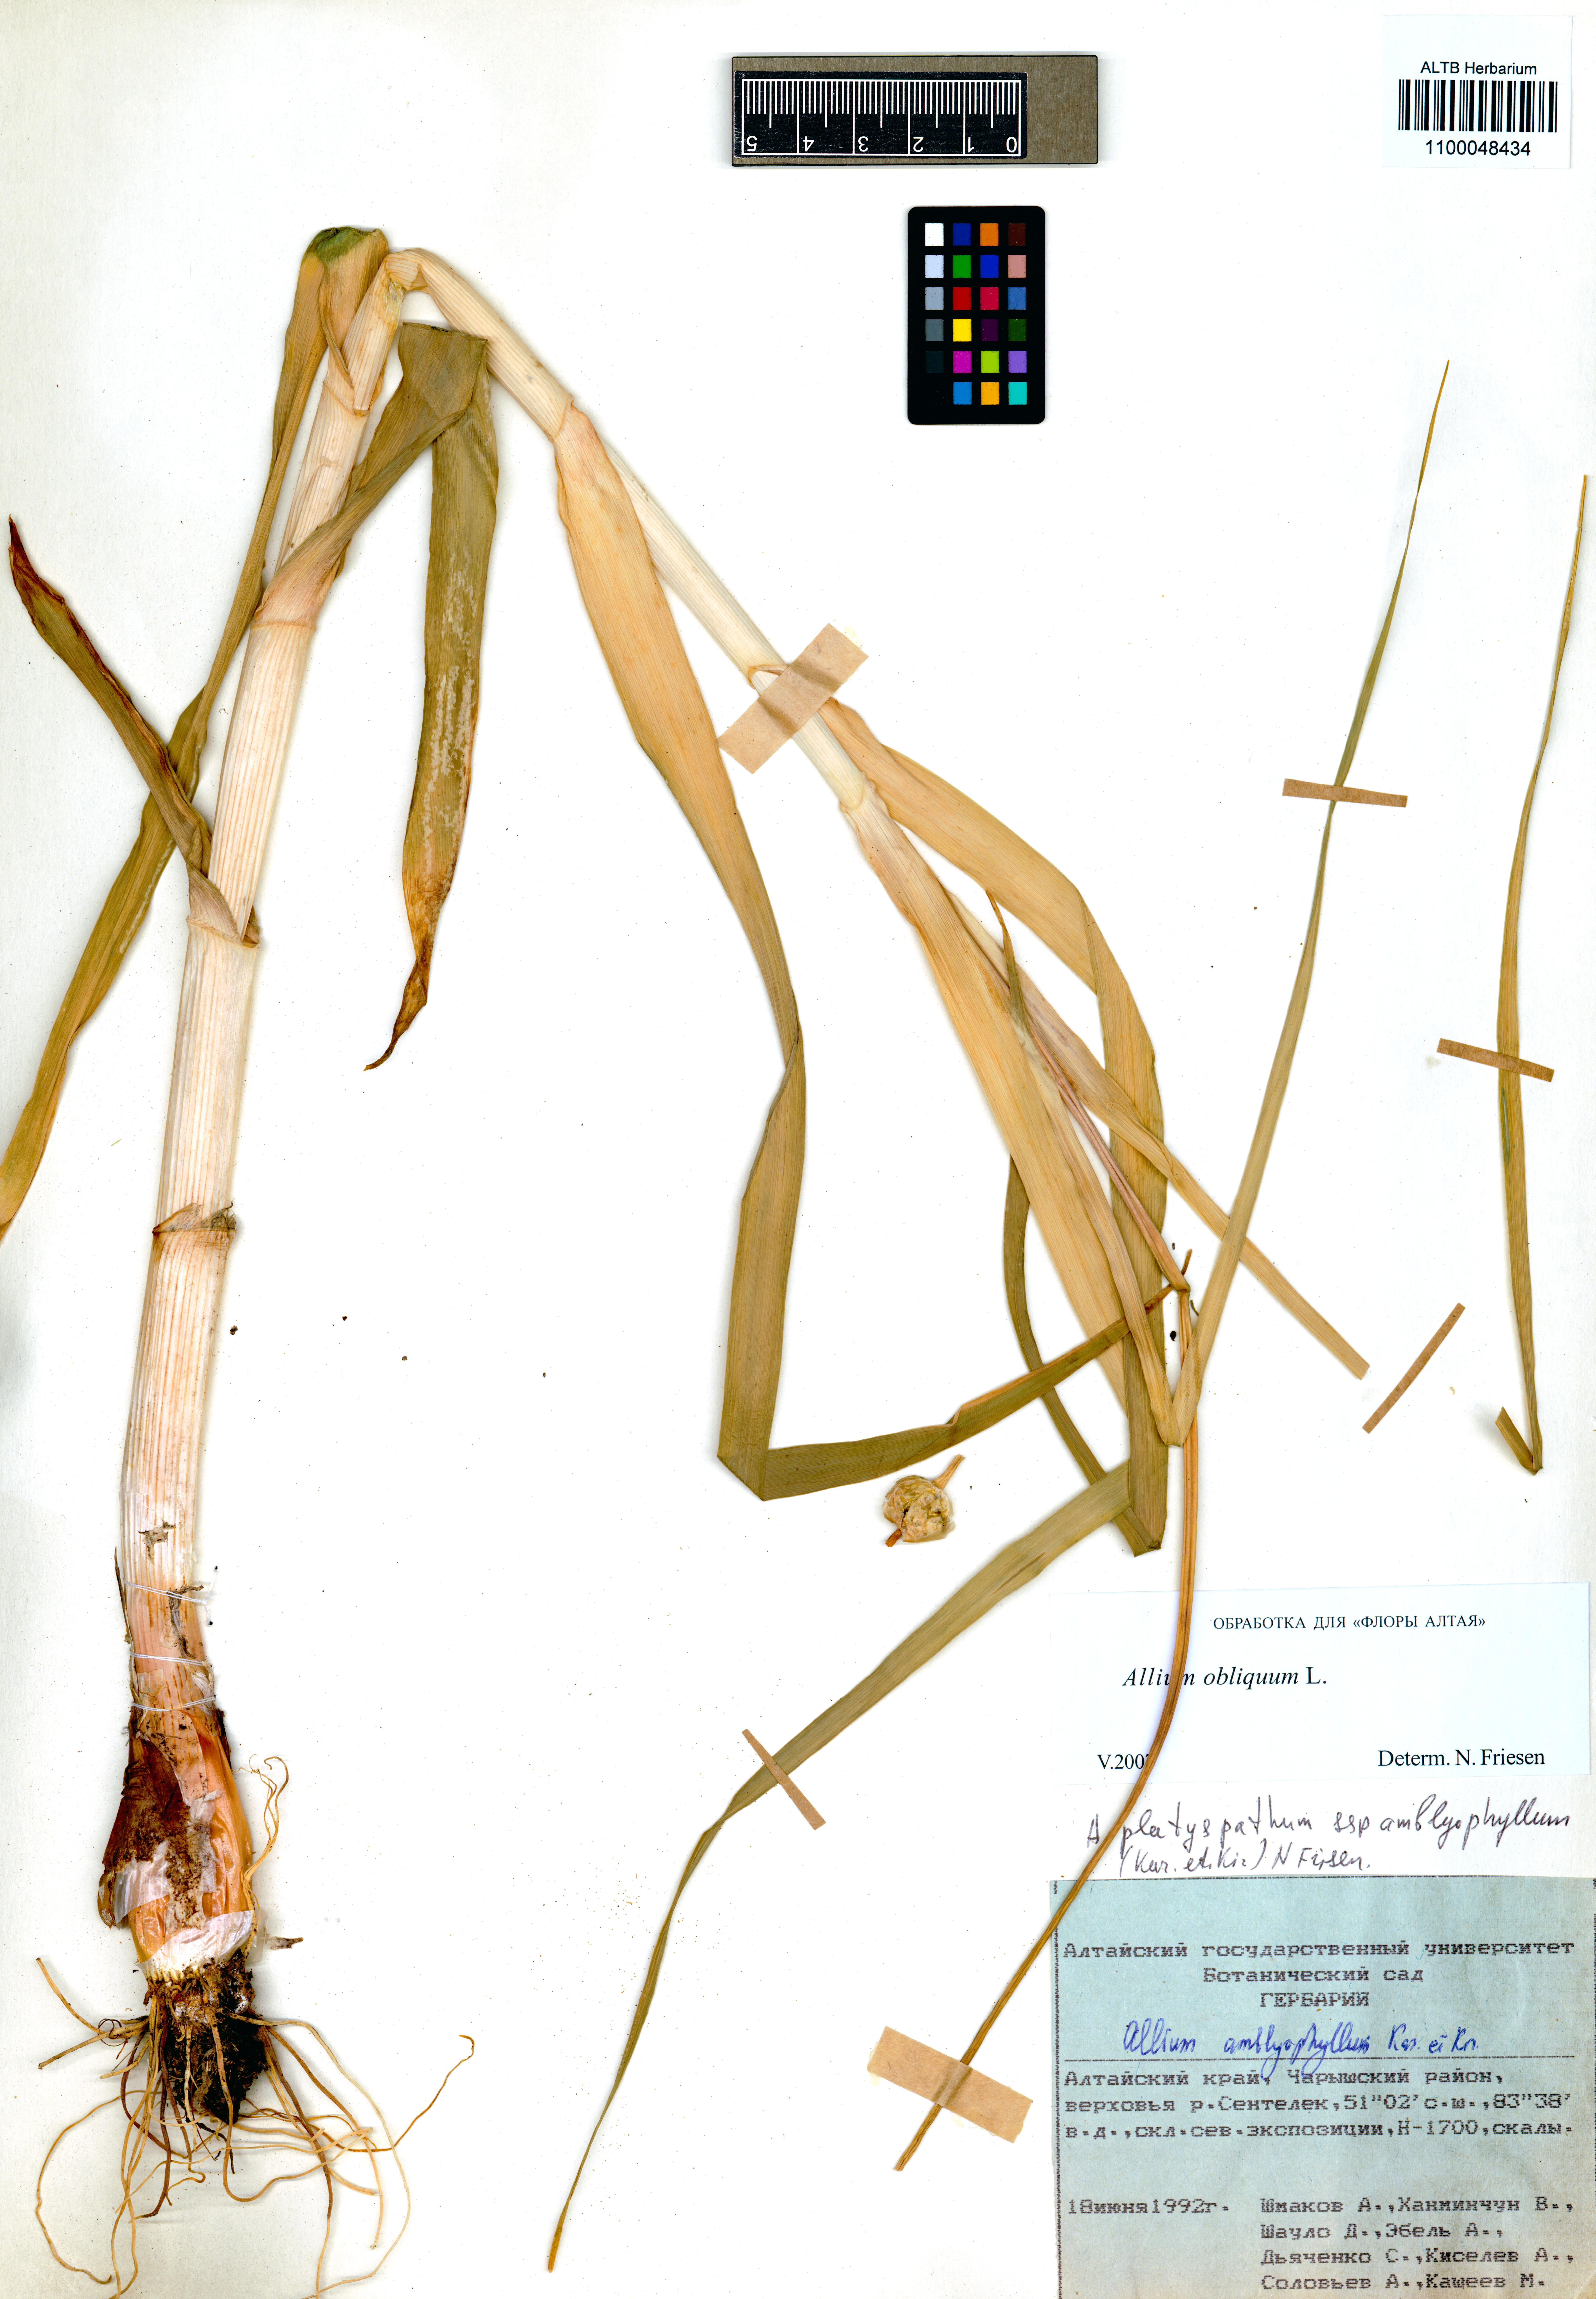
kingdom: Plantae
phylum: Tracheophyta
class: Liliopsida
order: Asparagales
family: Amaryllidaceae
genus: Allium
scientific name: Allium obliquum
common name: Oblique onion
